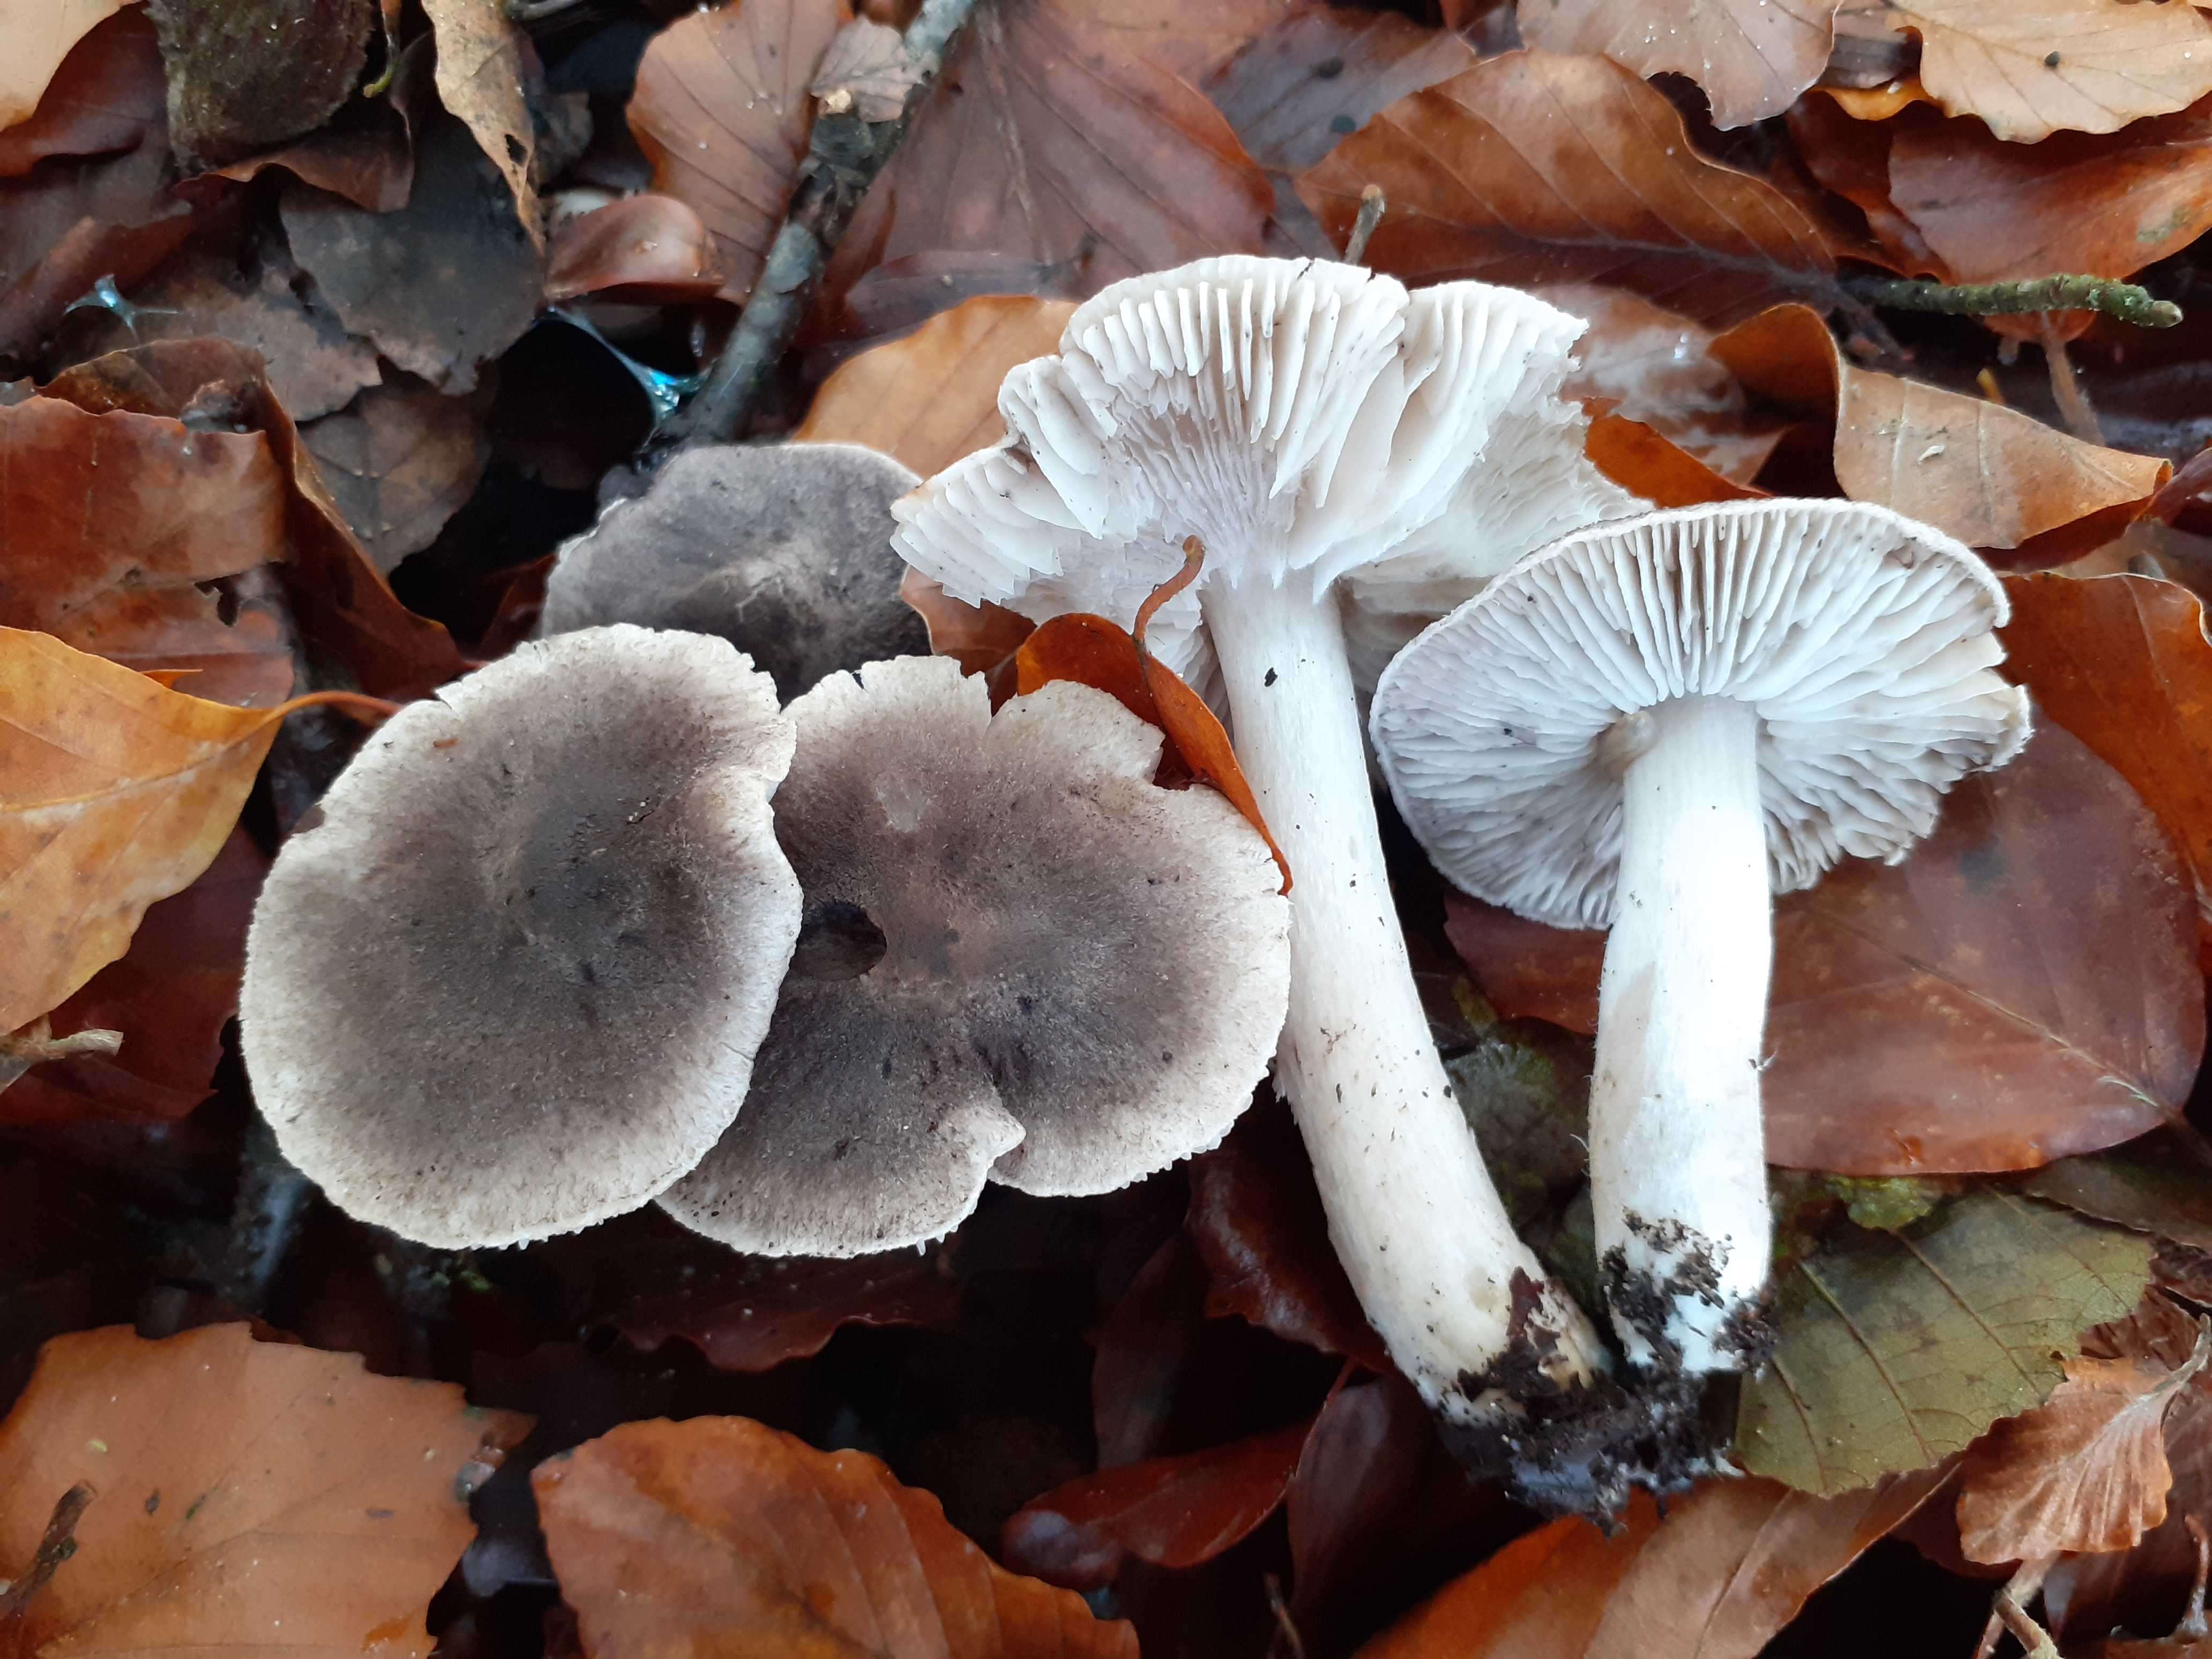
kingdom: Fungi
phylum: Basidiomycota
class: Agaricomycetes
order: Agaricales
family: Tricholomataceae
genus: Tricholoma
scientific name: Tricholoma terreum
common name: jordfarvet ridderhat
